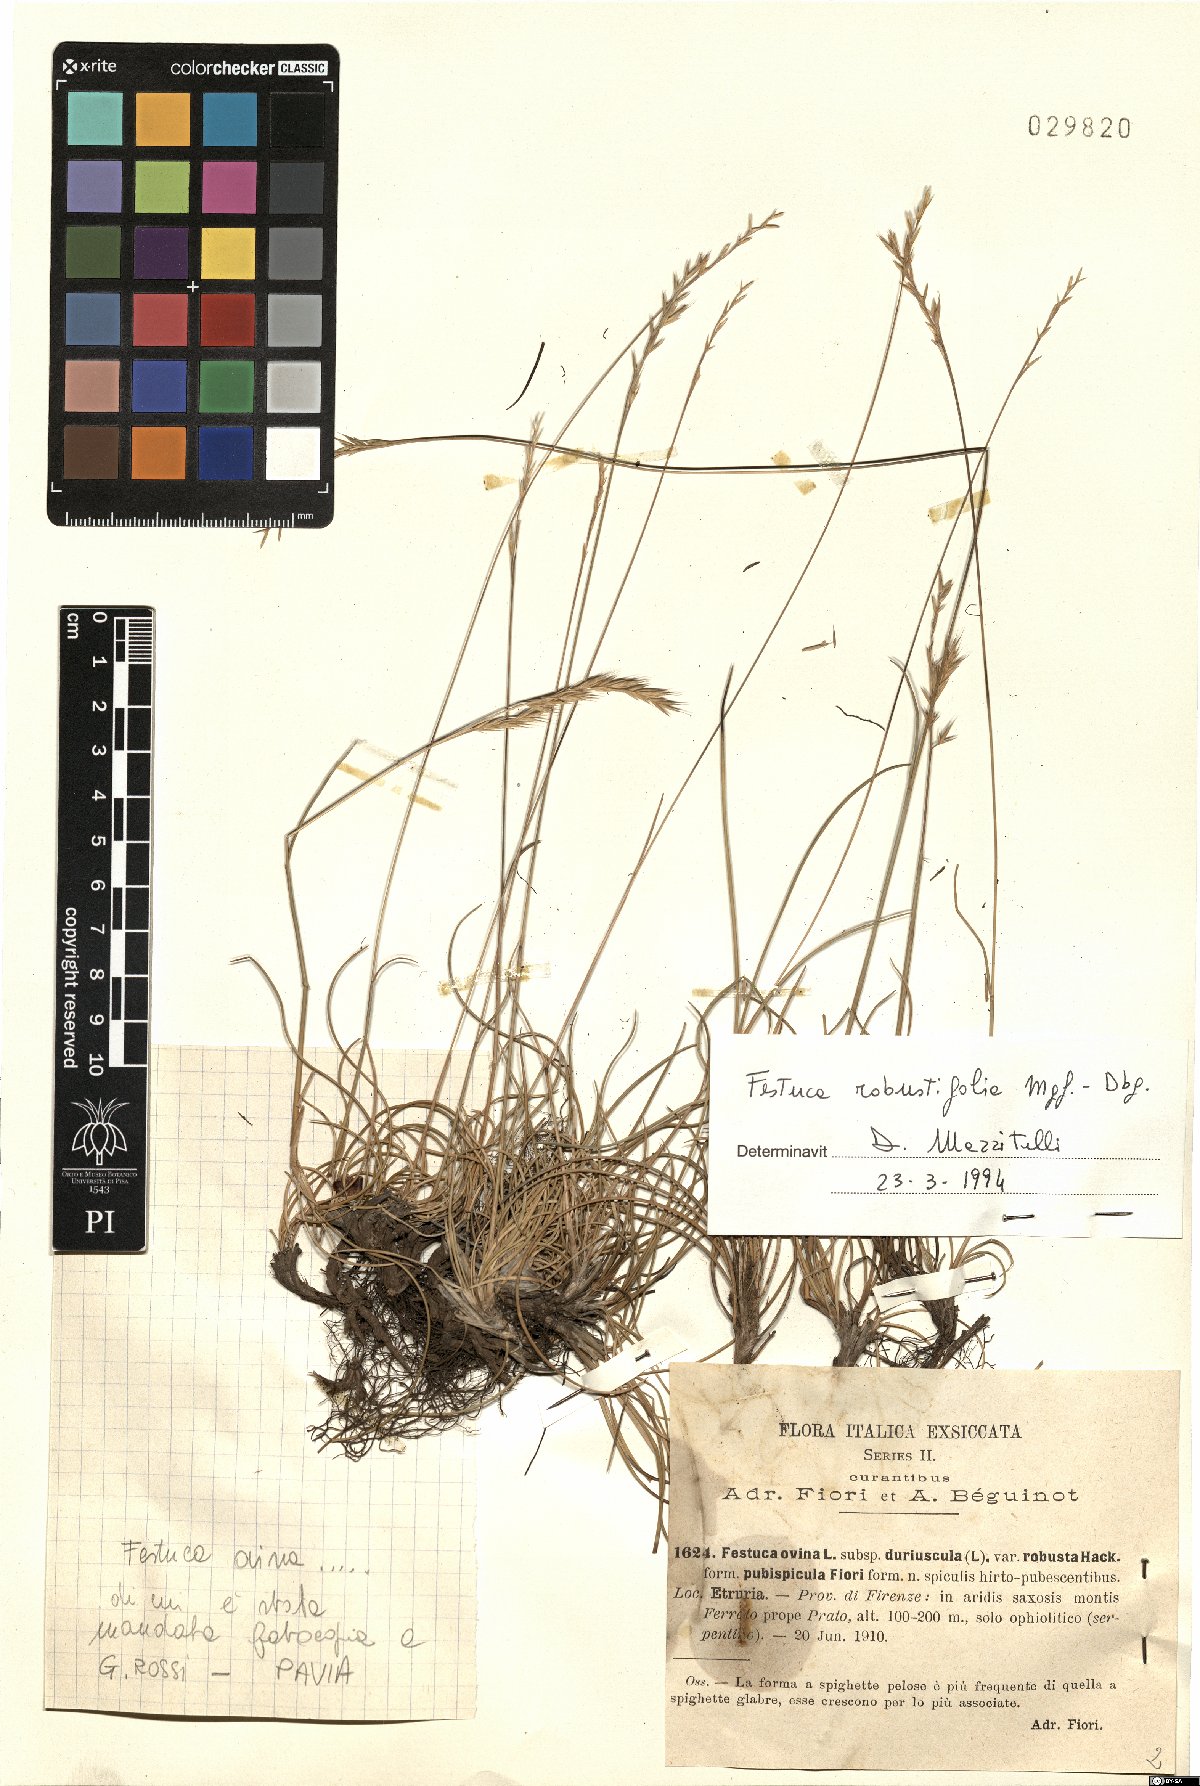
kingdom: Plantae
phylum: Tracheophyta
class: Liliopsida
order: Poales
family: Poaceae
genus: Festuca
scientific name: Festuca robustifolia
